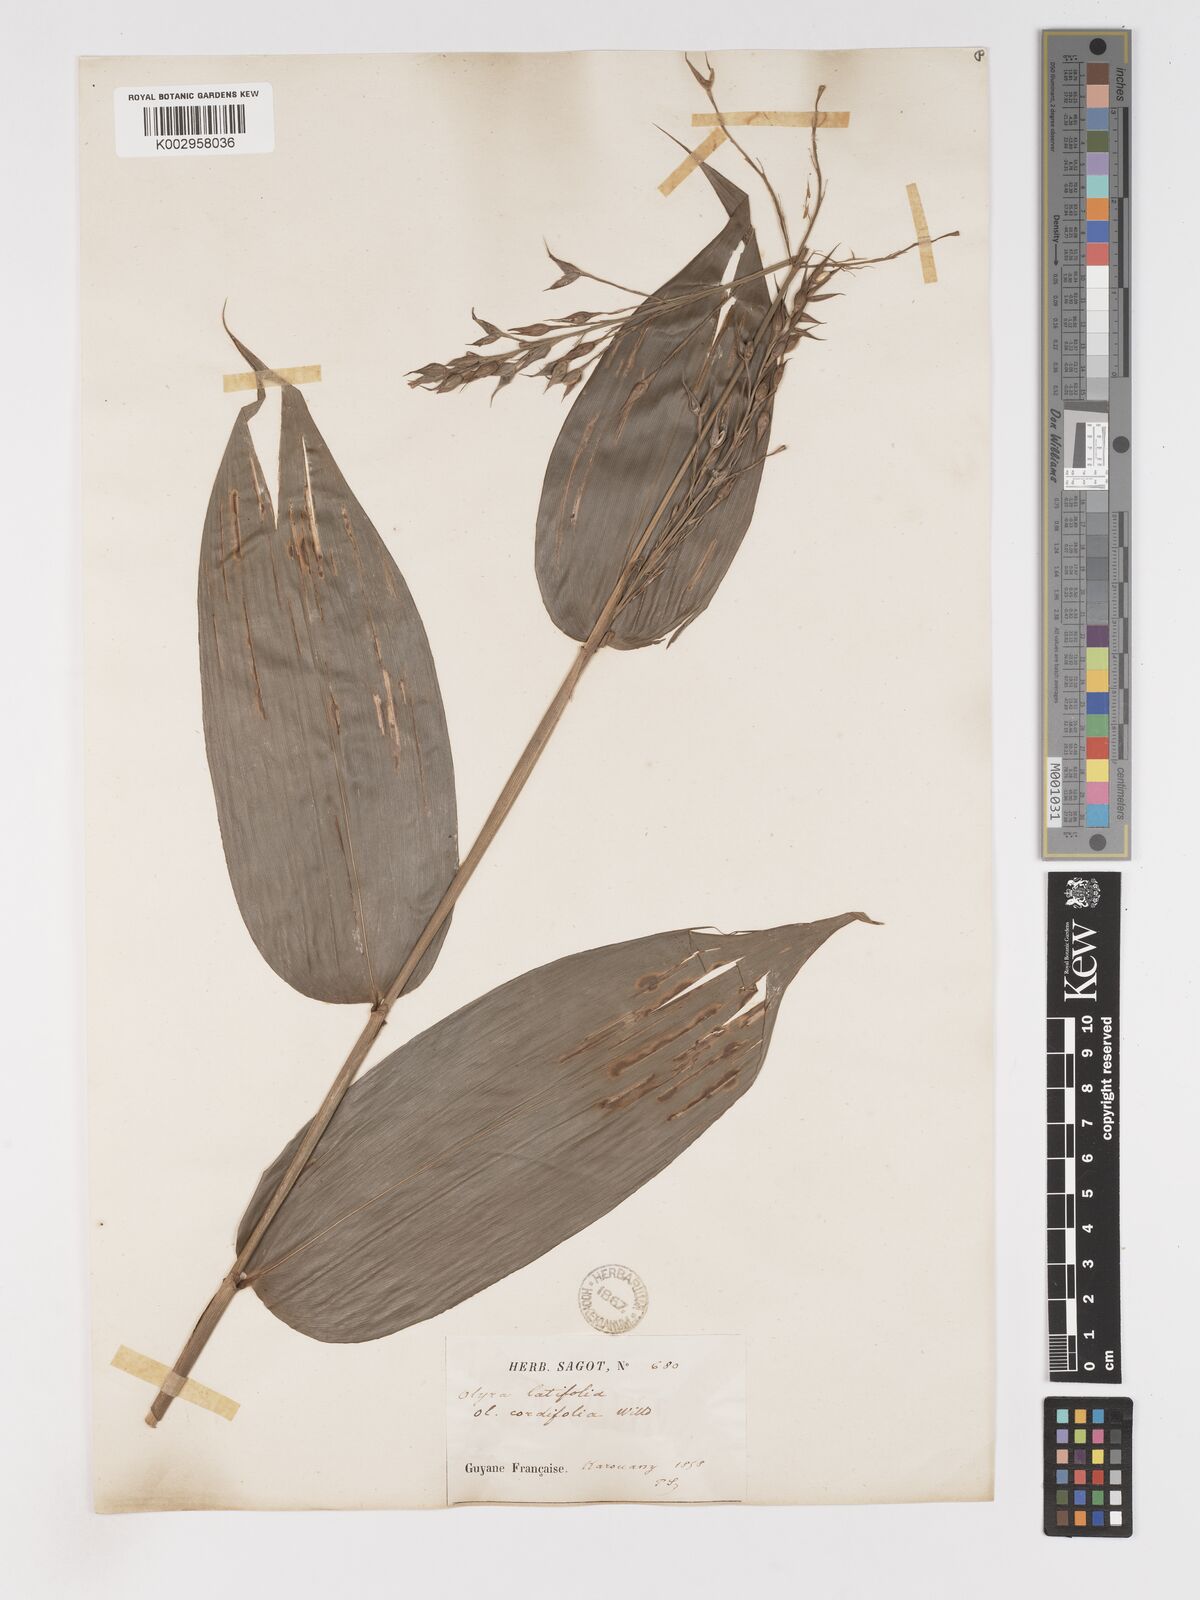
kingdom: Plantae
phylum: Tracheophyta
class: Liliopsida
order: Poales
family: Poaceae
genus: Olyra
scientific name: Olyra latifolia
